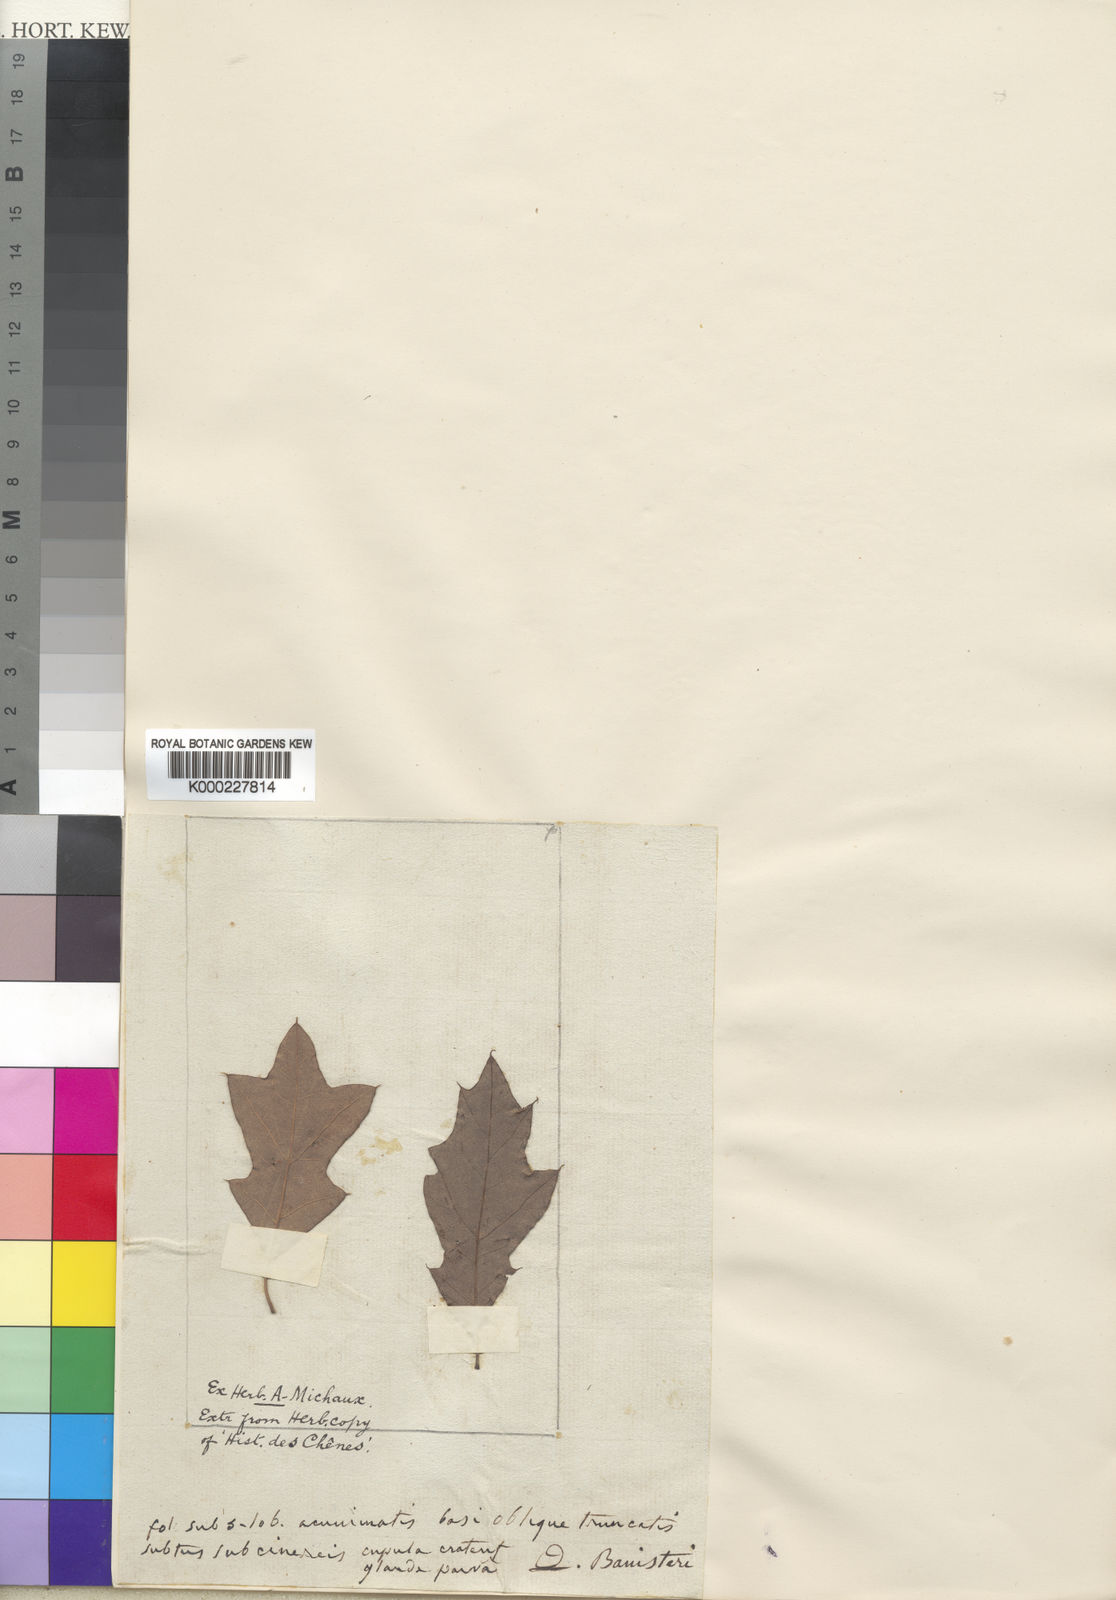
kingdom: Plantae
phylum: Tracheophyta
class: Magnoliopsida
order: Fagales
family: Fagaceae
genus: Quercus
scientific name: Quercus ilicifolia
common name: Bear oak
